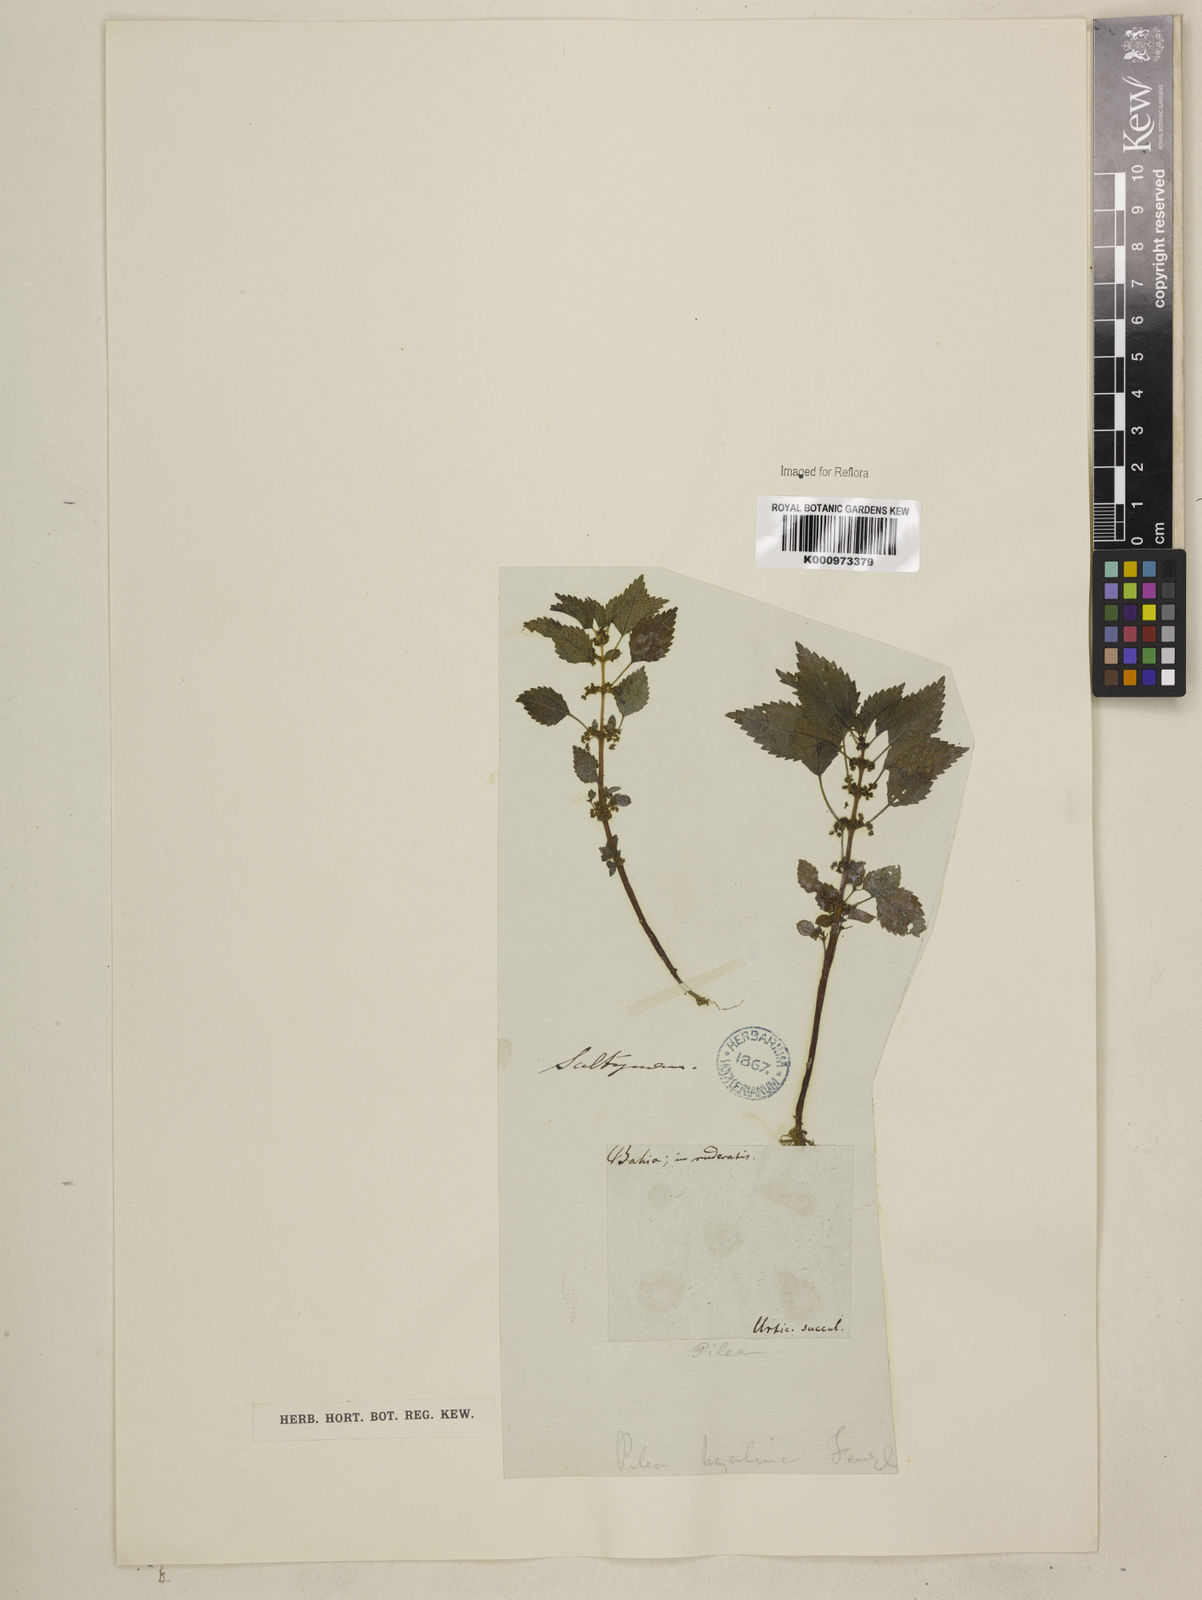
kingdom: Plantae
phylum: Tracheophyta
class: Magnoliopsida
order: Rosales
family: Urticaceae
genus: Pilea
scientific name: Pilea hyalina
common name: Virdrillo
